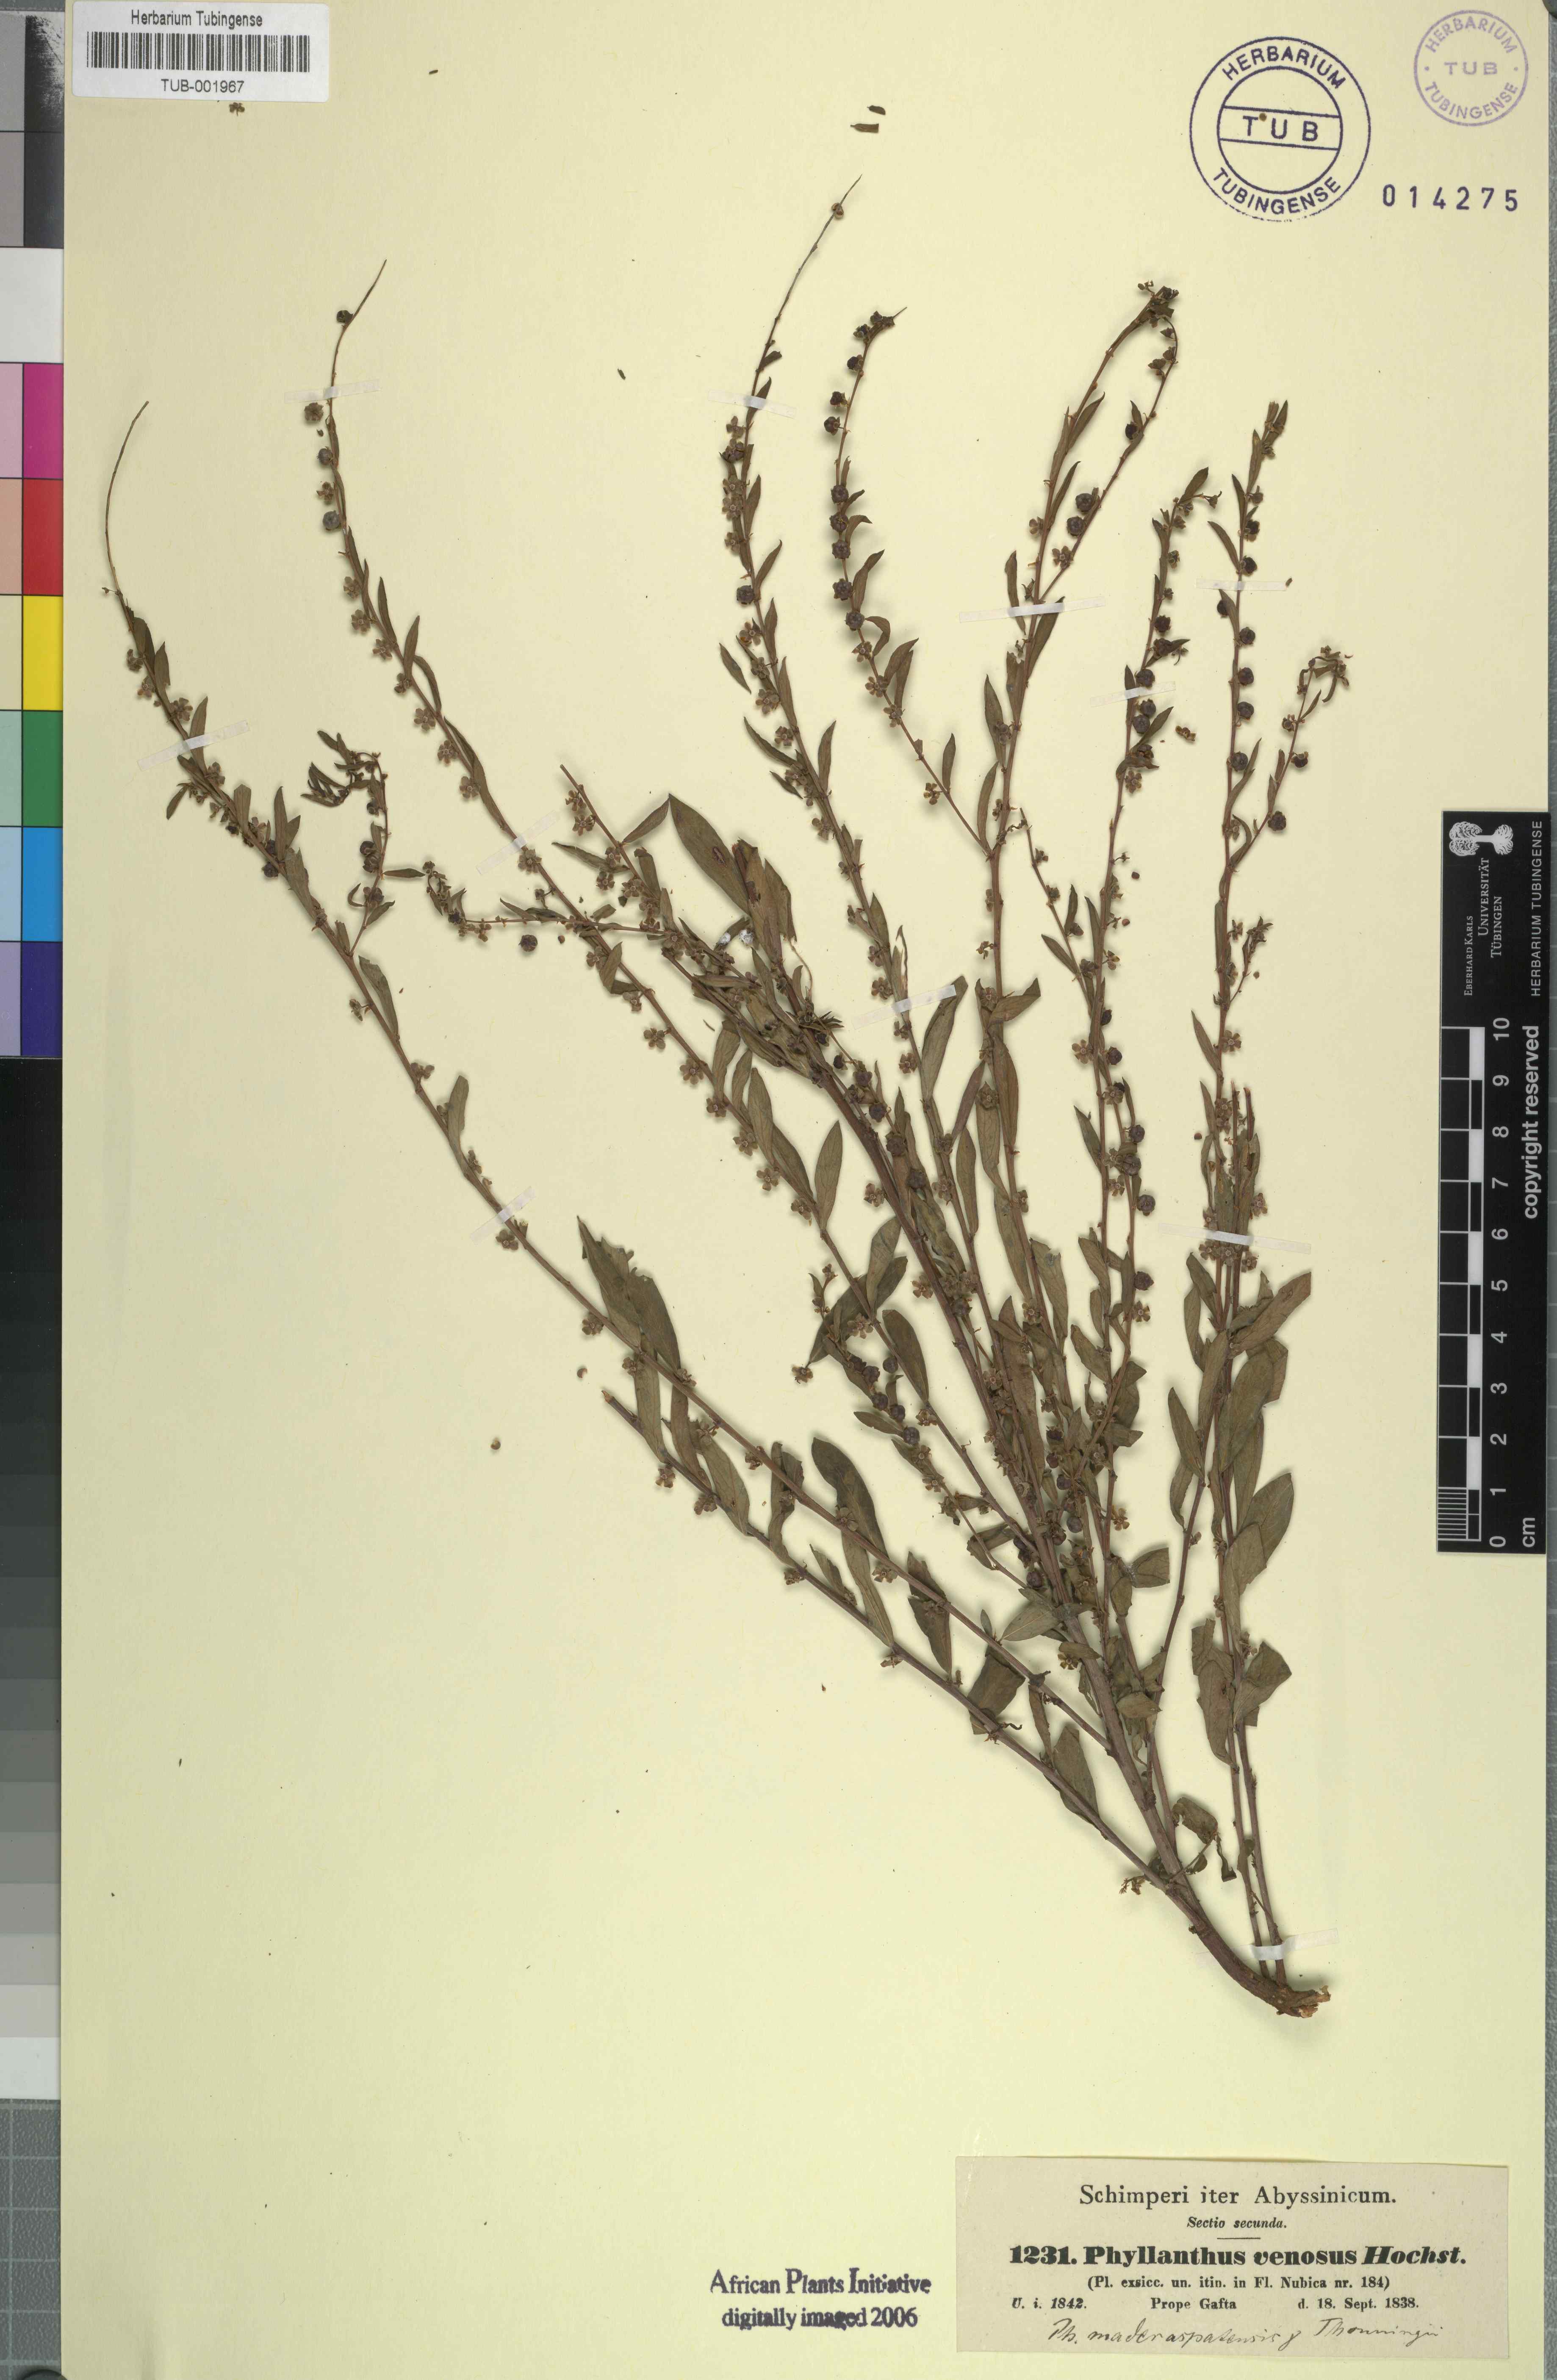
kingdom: Plantae
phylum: Tracheophyta
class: Magnoliopsida
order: Malpighiales
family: Phyllanthaceae
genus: Phyllanthus
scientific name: Phyllanthus maderaspatensis
